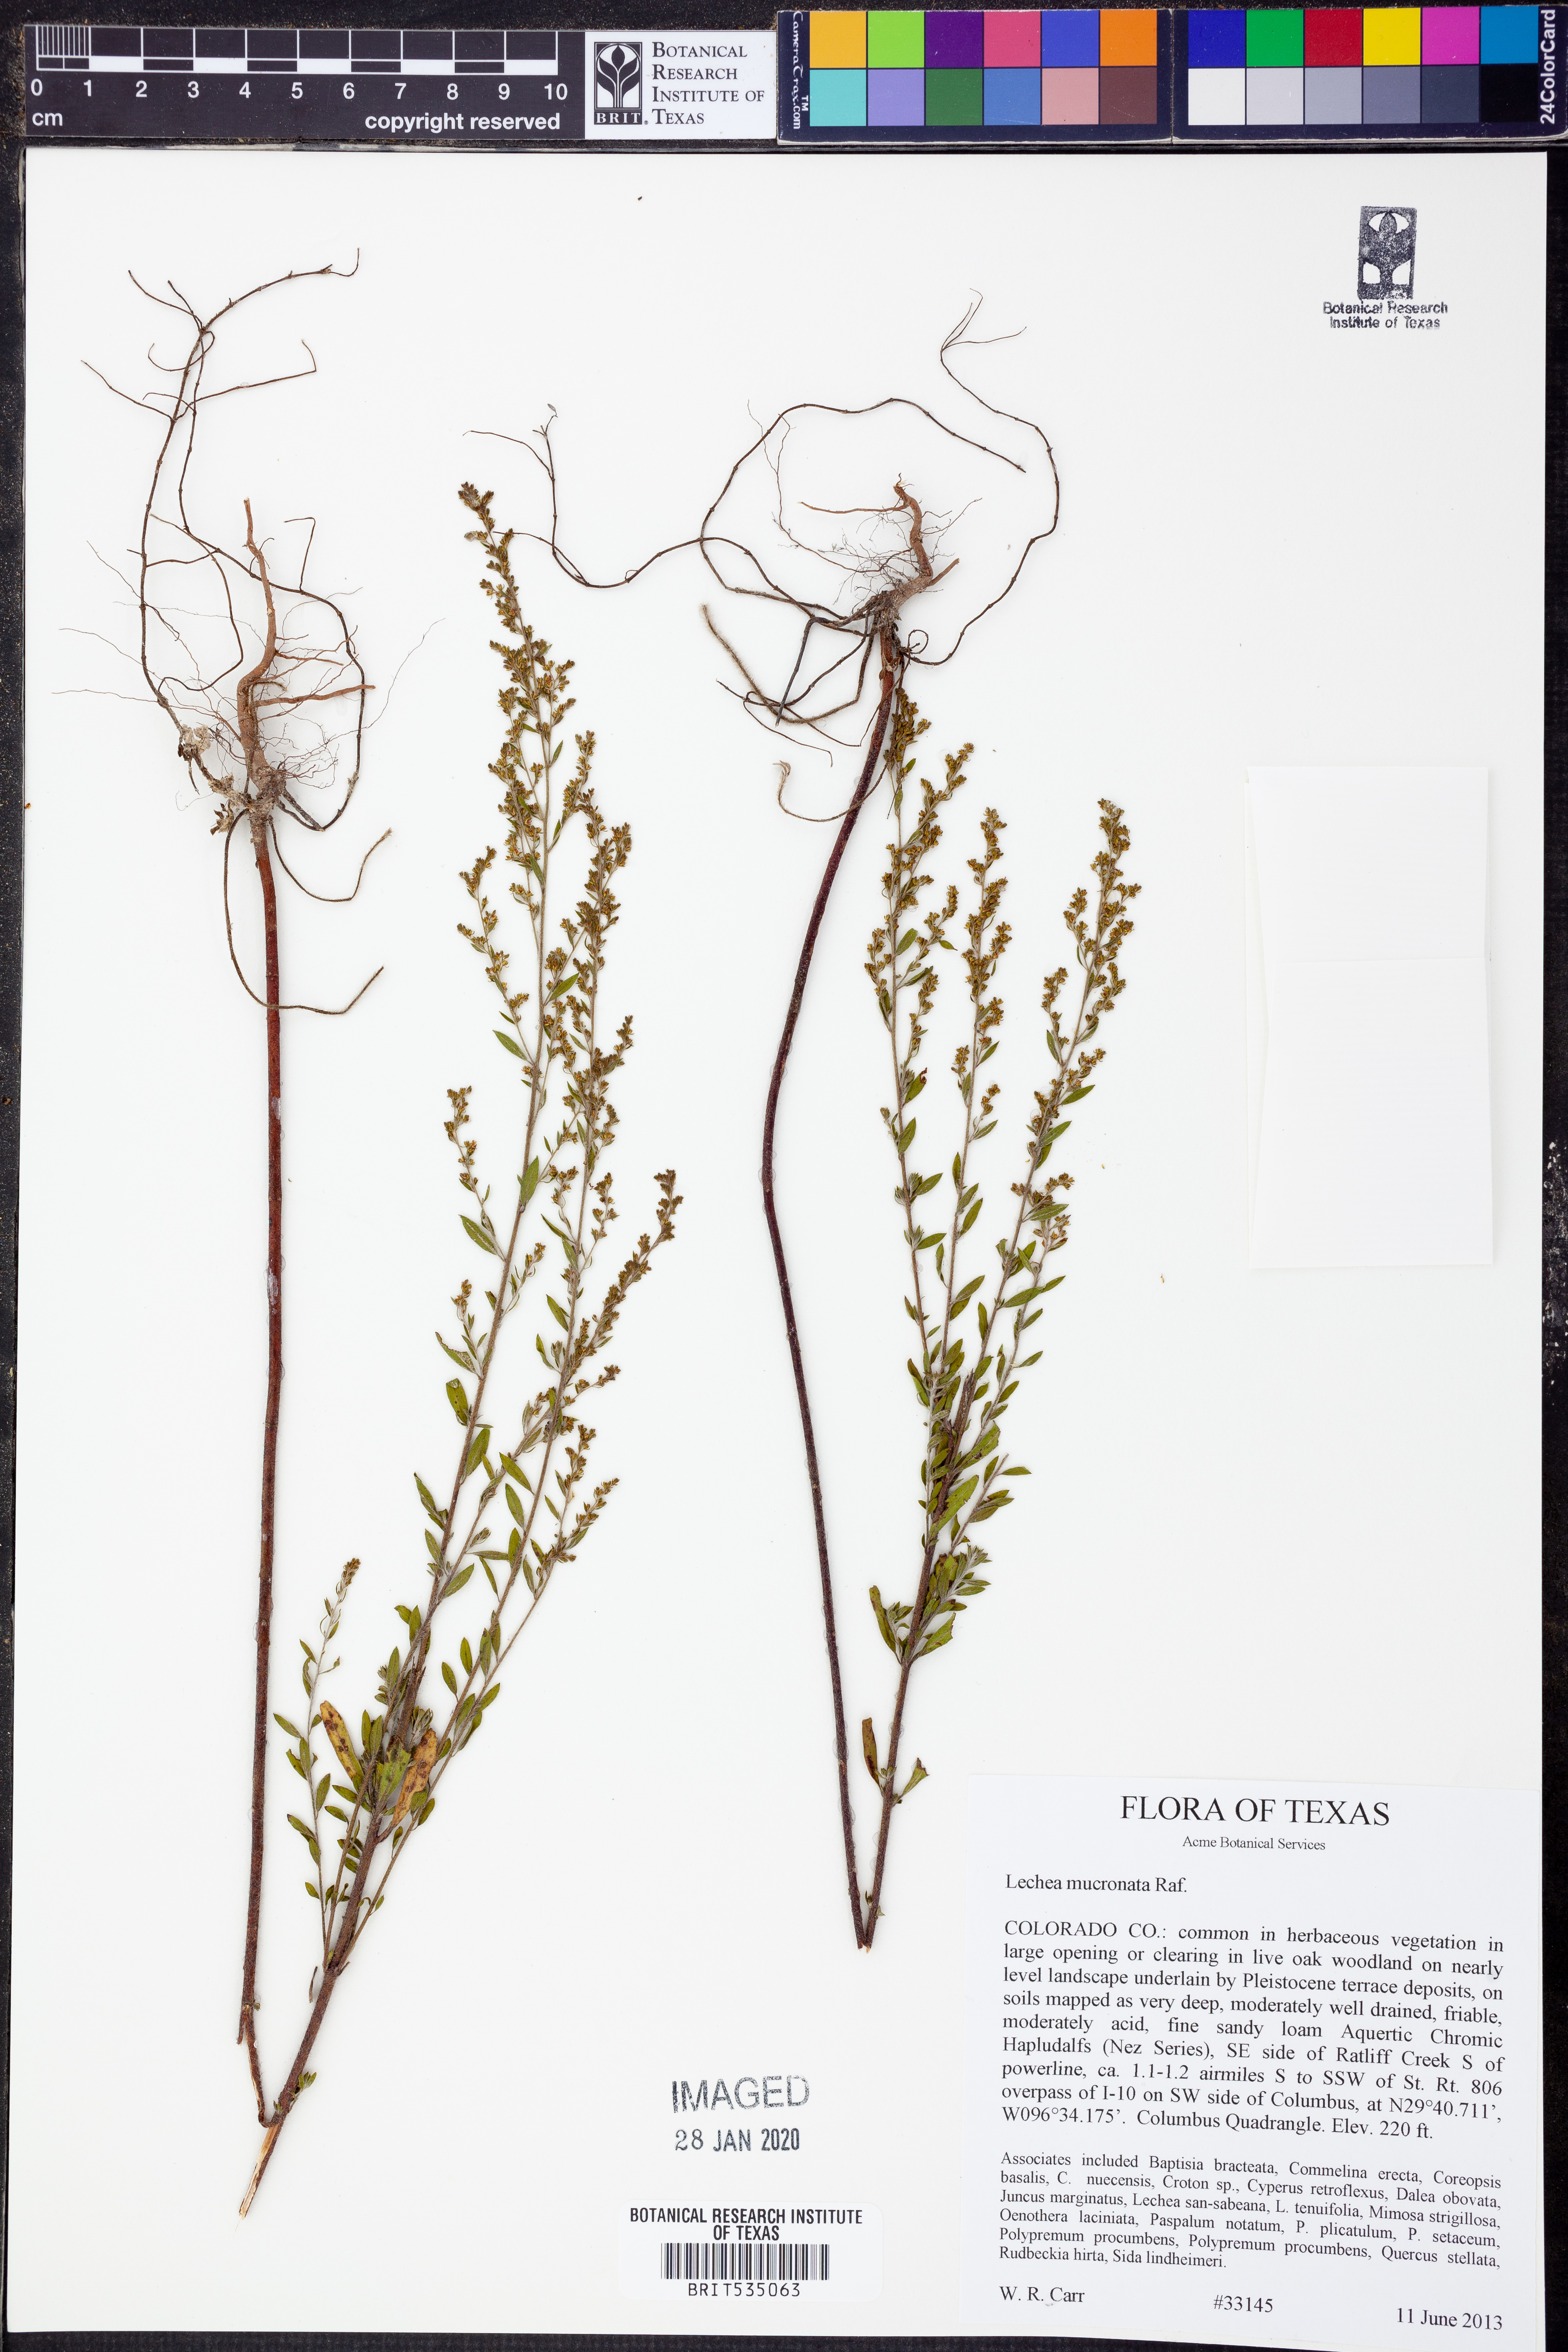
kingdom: Plantae
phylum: Tracheophyta
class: Magnoliopsida
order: Malvales
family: Cistaceae
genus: Lechea
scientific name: Lechea mucronata
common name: Hairy pinweed
